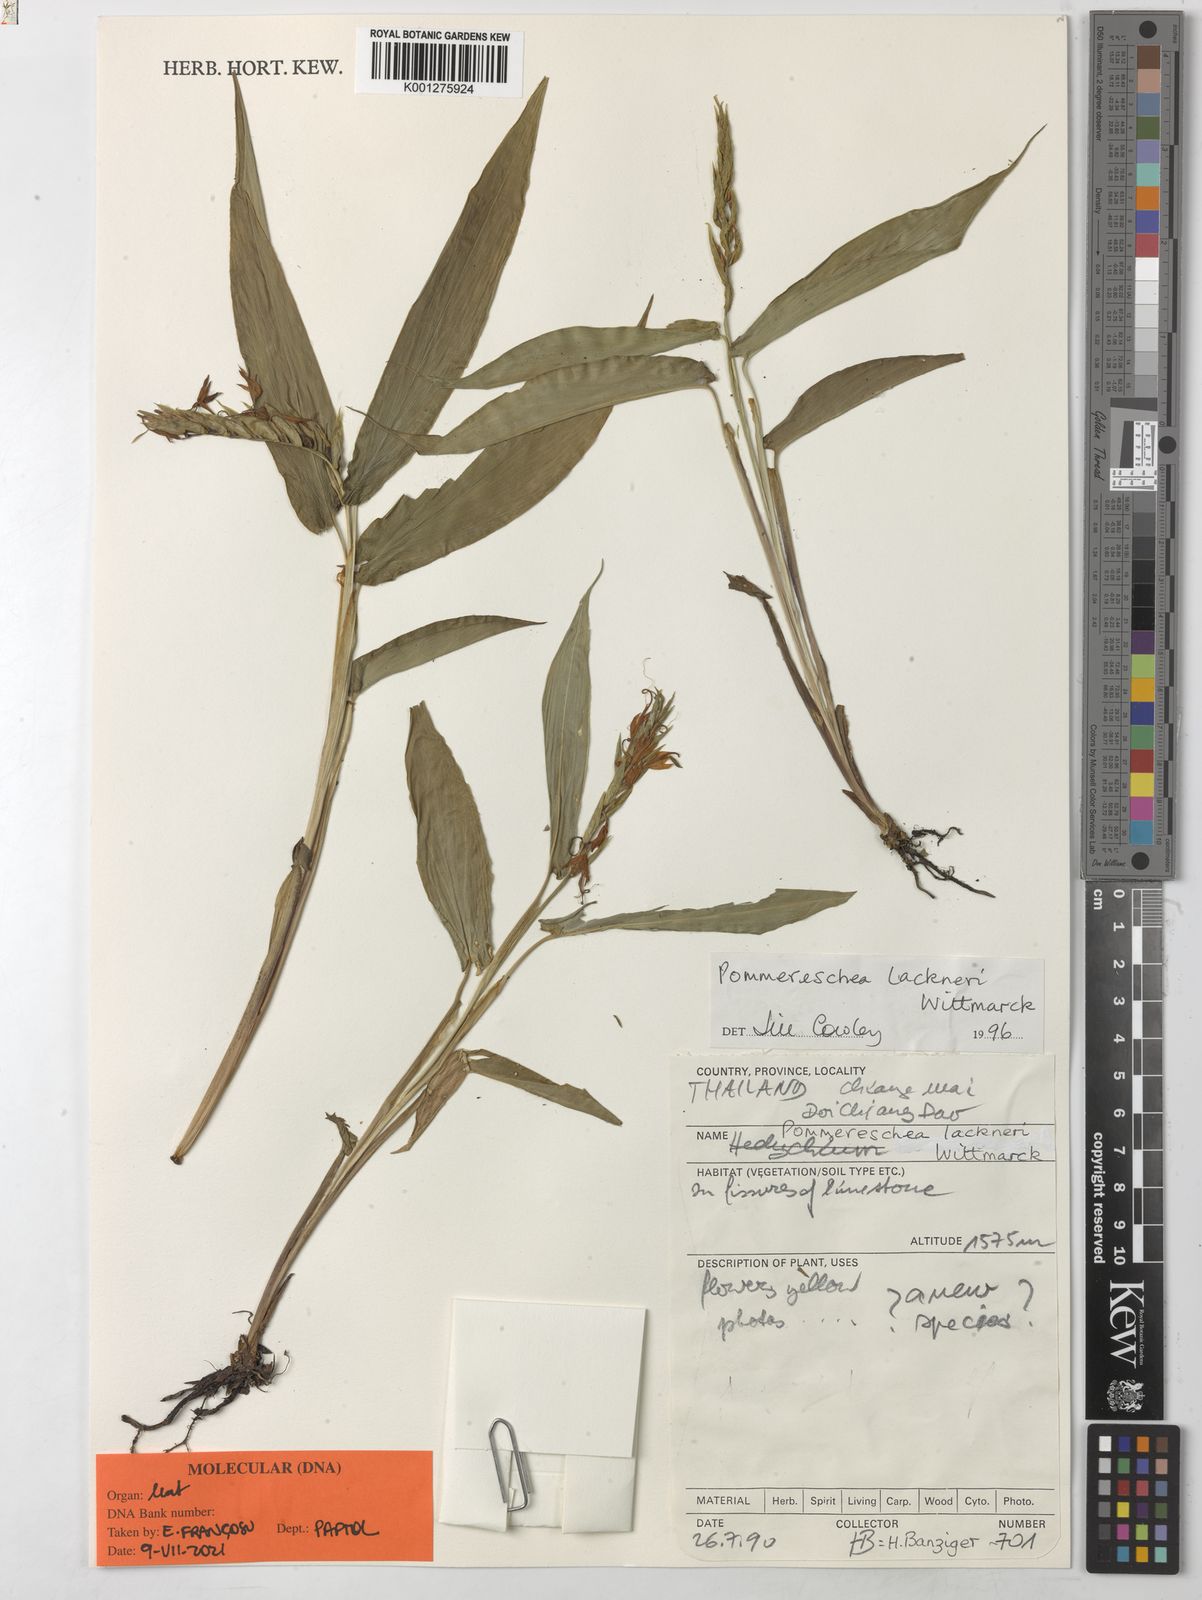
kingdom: Plantae
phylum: Tracheophyta
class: Liliopsida
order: Zingiberales
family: Zingiberaceae
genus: Pommereschea
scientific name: Pommereschea lackneri
